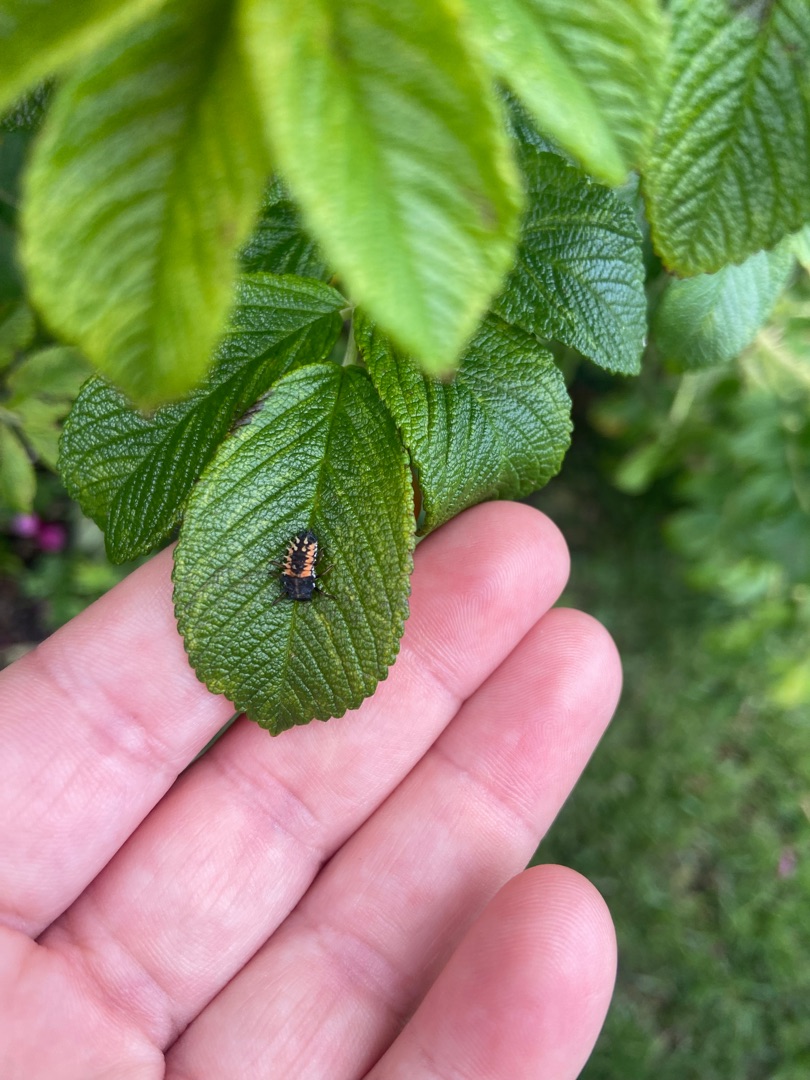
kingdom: Animalia
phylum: Arthropoda
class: Insecta
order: Coleoptera
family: Coccinellidae
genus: Harmonia
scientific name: Harmonia axyridis
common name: Harlekinmariehøne
